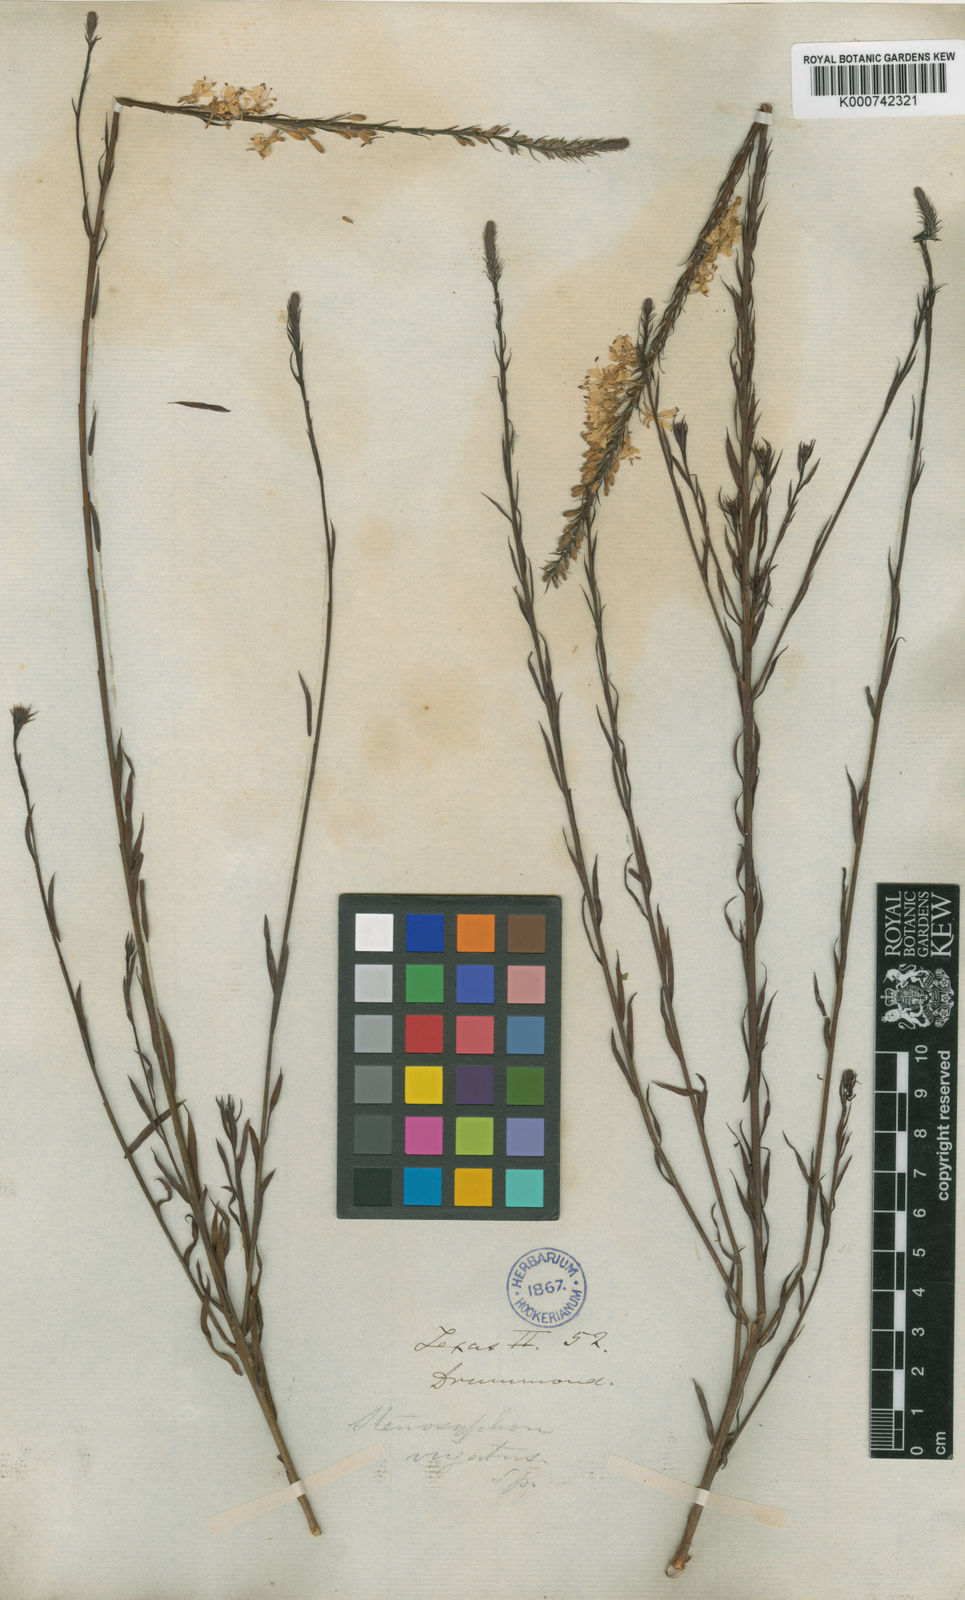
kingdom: Plantae
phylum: Tracheophyta
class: Magnoliopsida
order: Myrtales
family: Onagraceae
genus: Oenothera
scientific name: Oenothera glaucifolia
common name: False gaura
